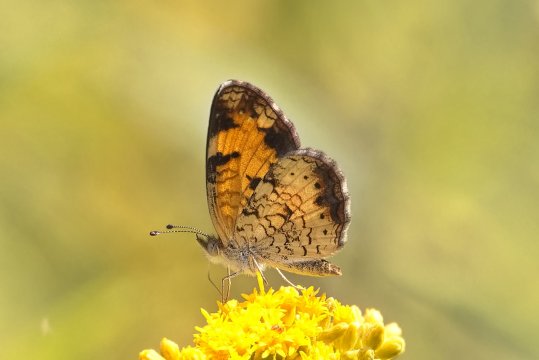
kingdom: Animalia
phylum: Arthropoda
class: Insecta
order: Lepidoptera
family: Nymphalidae
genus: Phyciodes
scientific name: Phyciodes tharos
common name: Pearl Crescent
